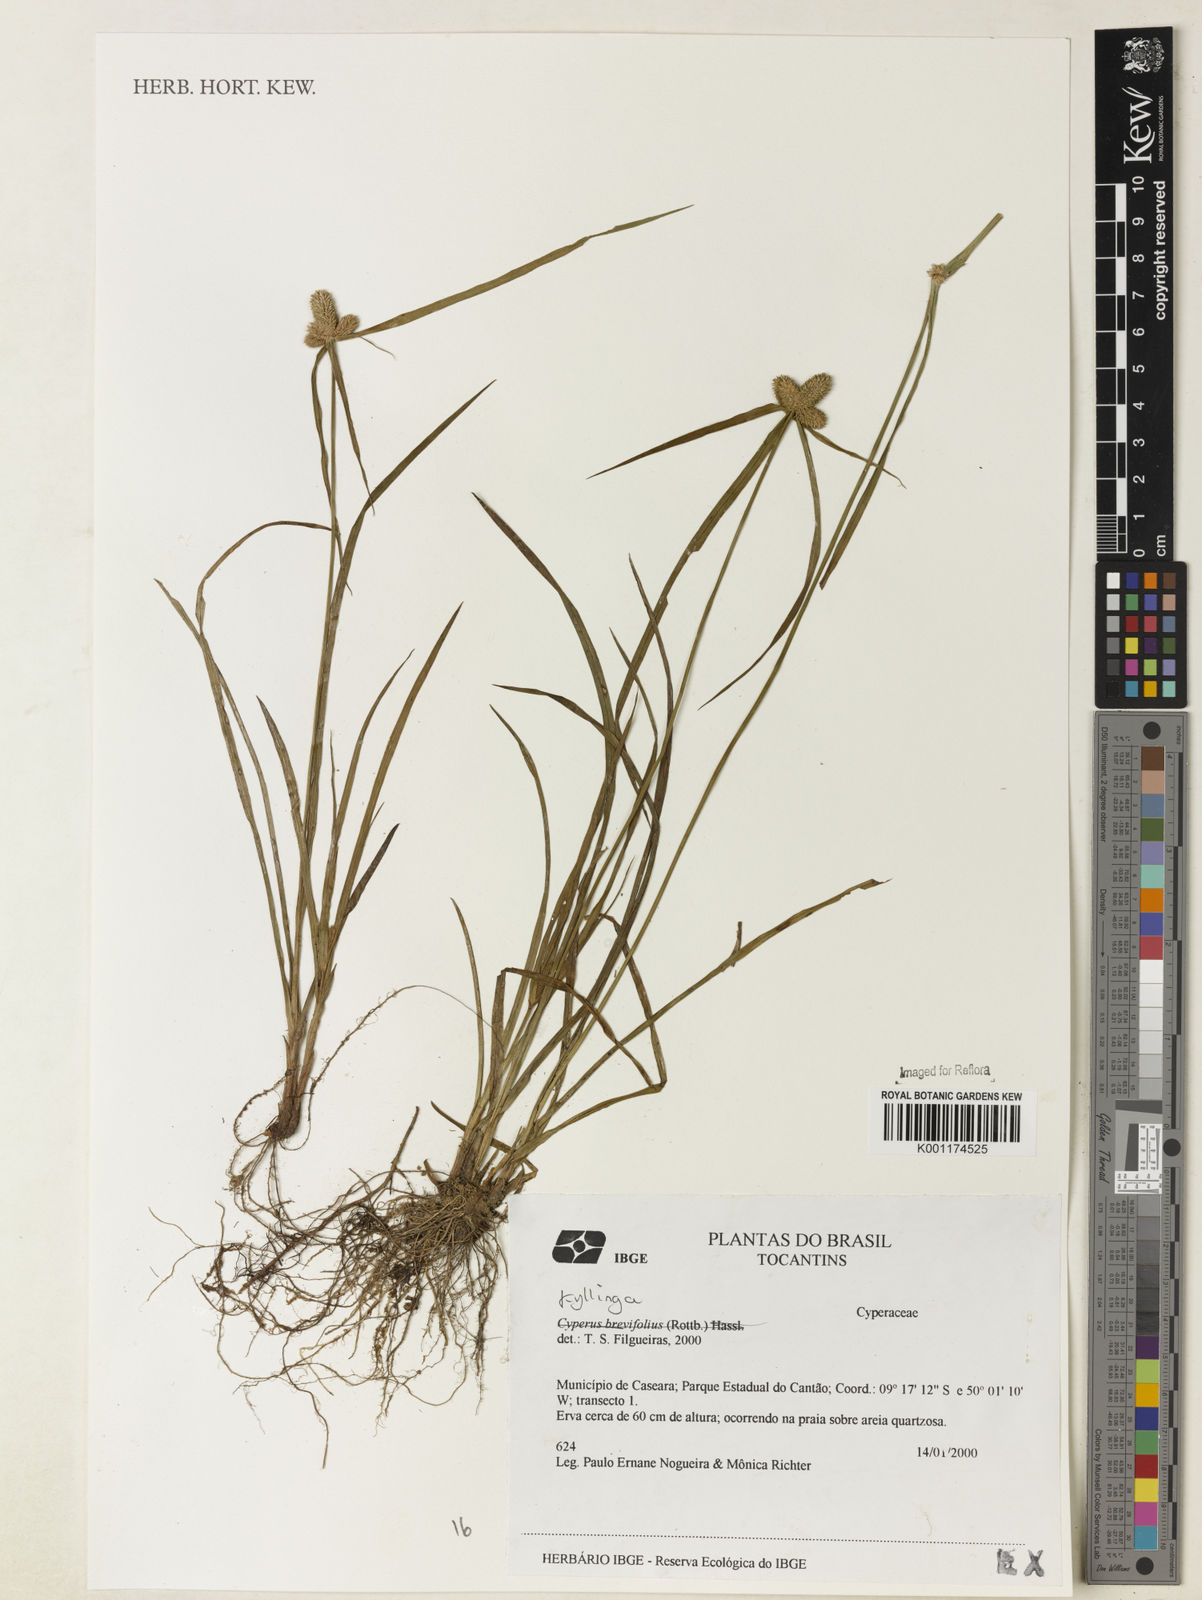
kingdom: Plantae
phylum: Tracheophyta
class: Liliopsida
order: Poales
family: Cyperaceae
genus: Cyperus
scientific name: Cyperus
